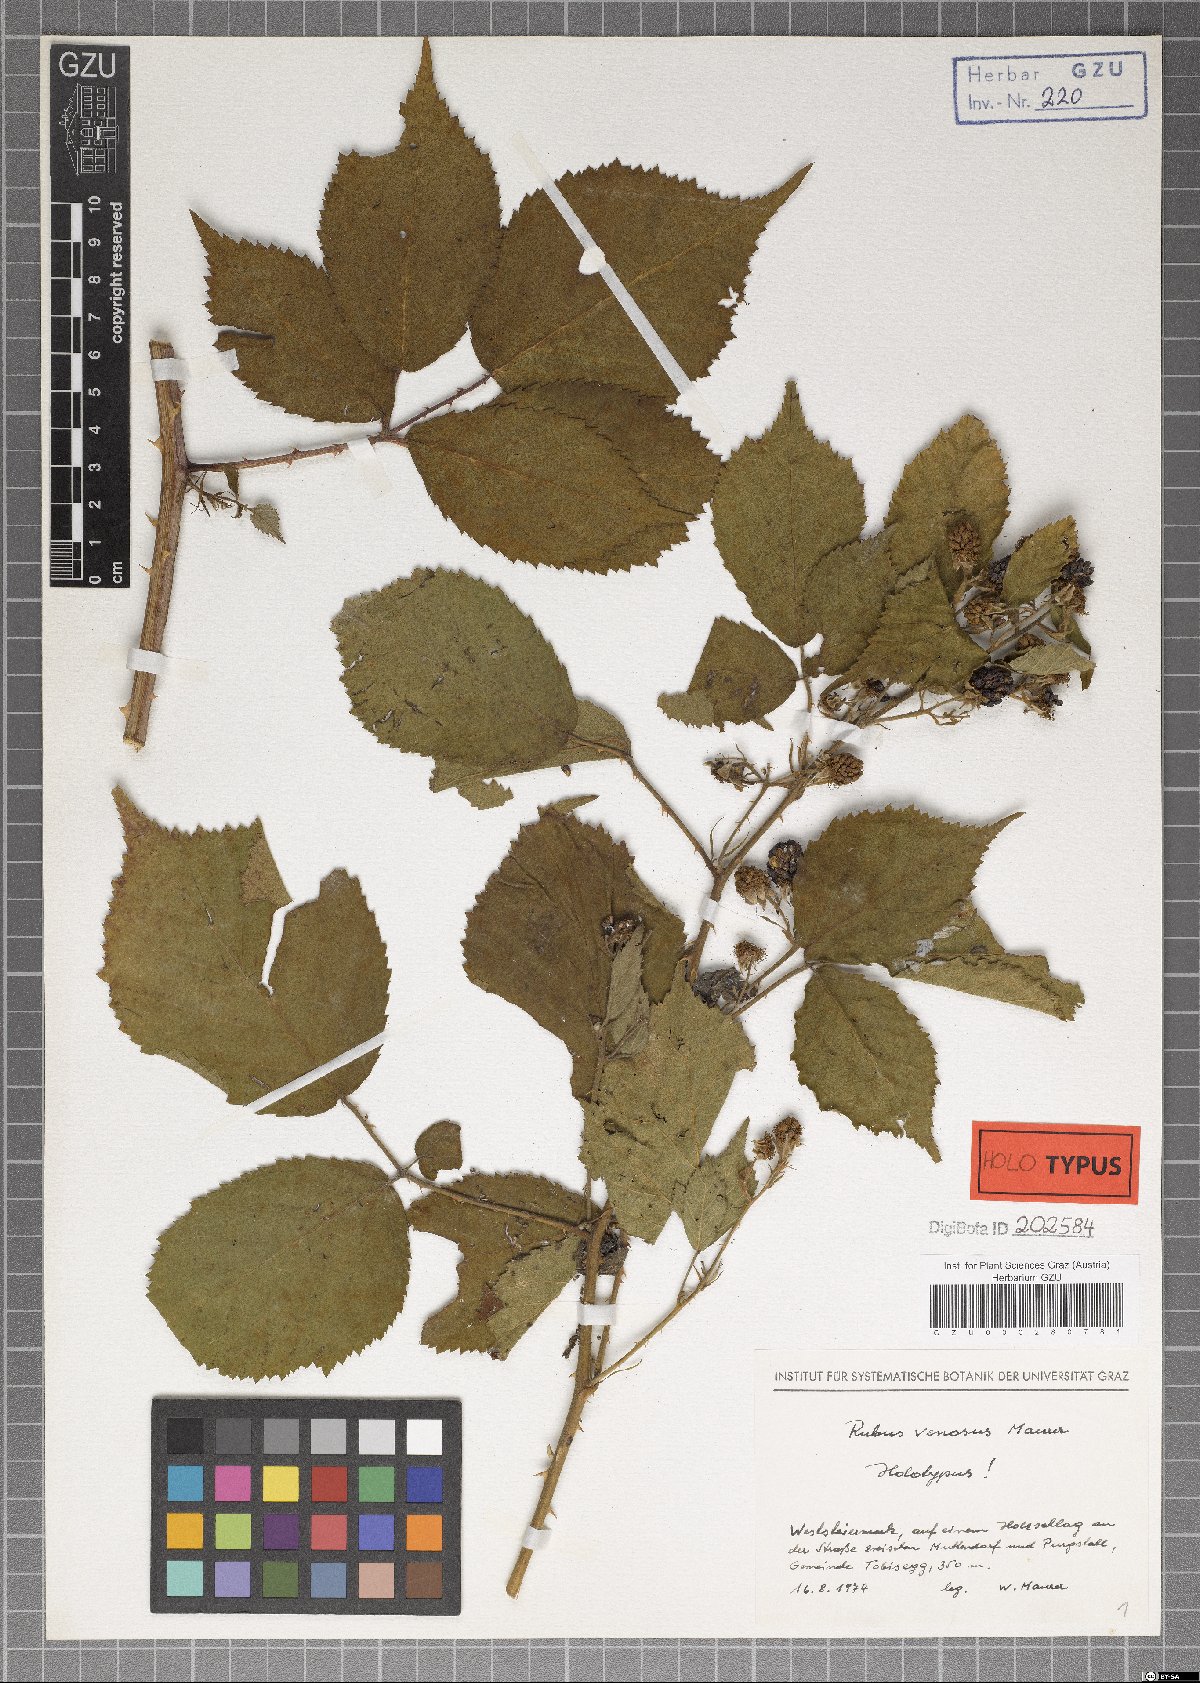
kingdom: Plantae
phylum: Tracheophyta
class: Magnoliopsida
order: Rosales
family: Rosaceae
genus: Rubus
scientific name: Rubus venosus
